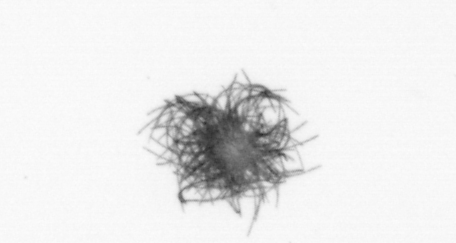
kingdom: Bacteria
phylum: Cyanobacteria
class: Cyanobacteriia
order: Cyanobacteriales
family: Microcoleaceae
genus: Trichodesmium
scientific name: Trichodesmium
